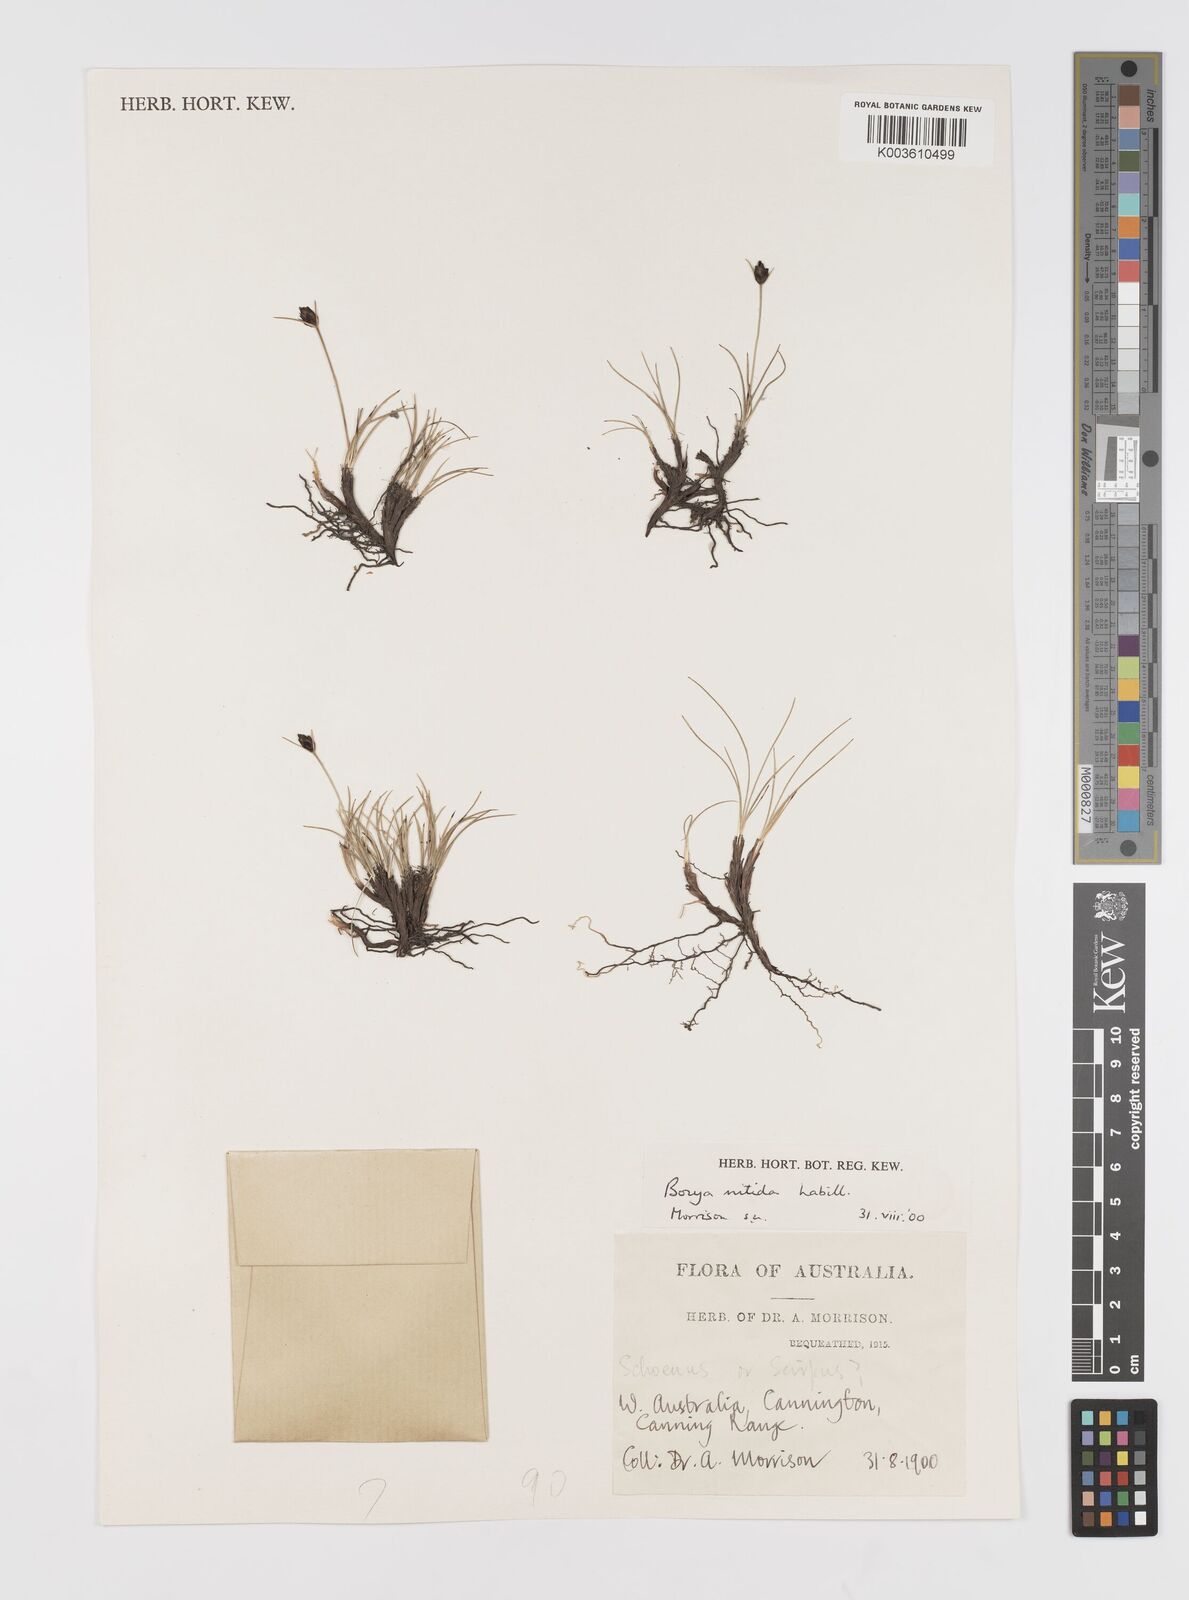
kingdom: Plantae
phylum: Tracheophyta
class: Liliopsida
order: Asparagales
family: Boryaceae
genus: Borya
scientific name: Borya nitida
